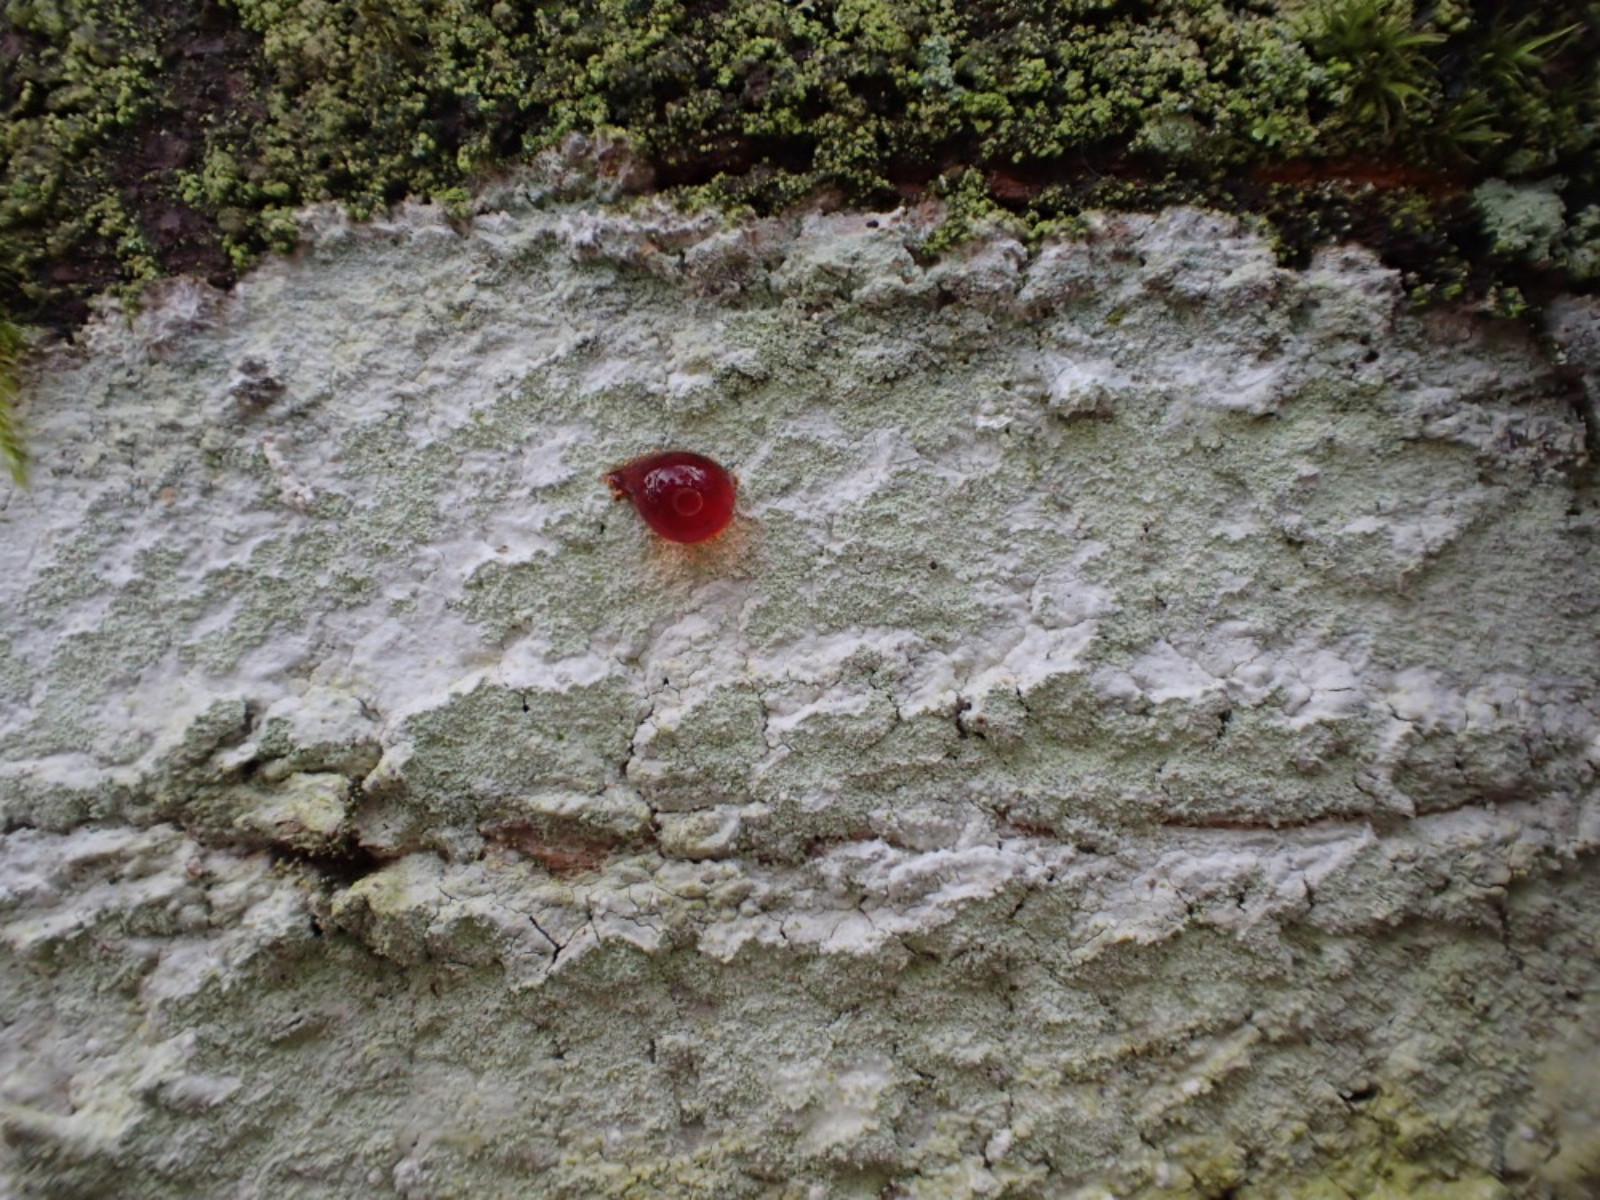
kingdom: Fungi
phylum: Ascomycota
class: Lecanoromycetes
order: Ostropales
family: Phlyctidaceae
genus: Phlyctis
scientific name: Phlyctis argena
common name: almindelig sølvlav
